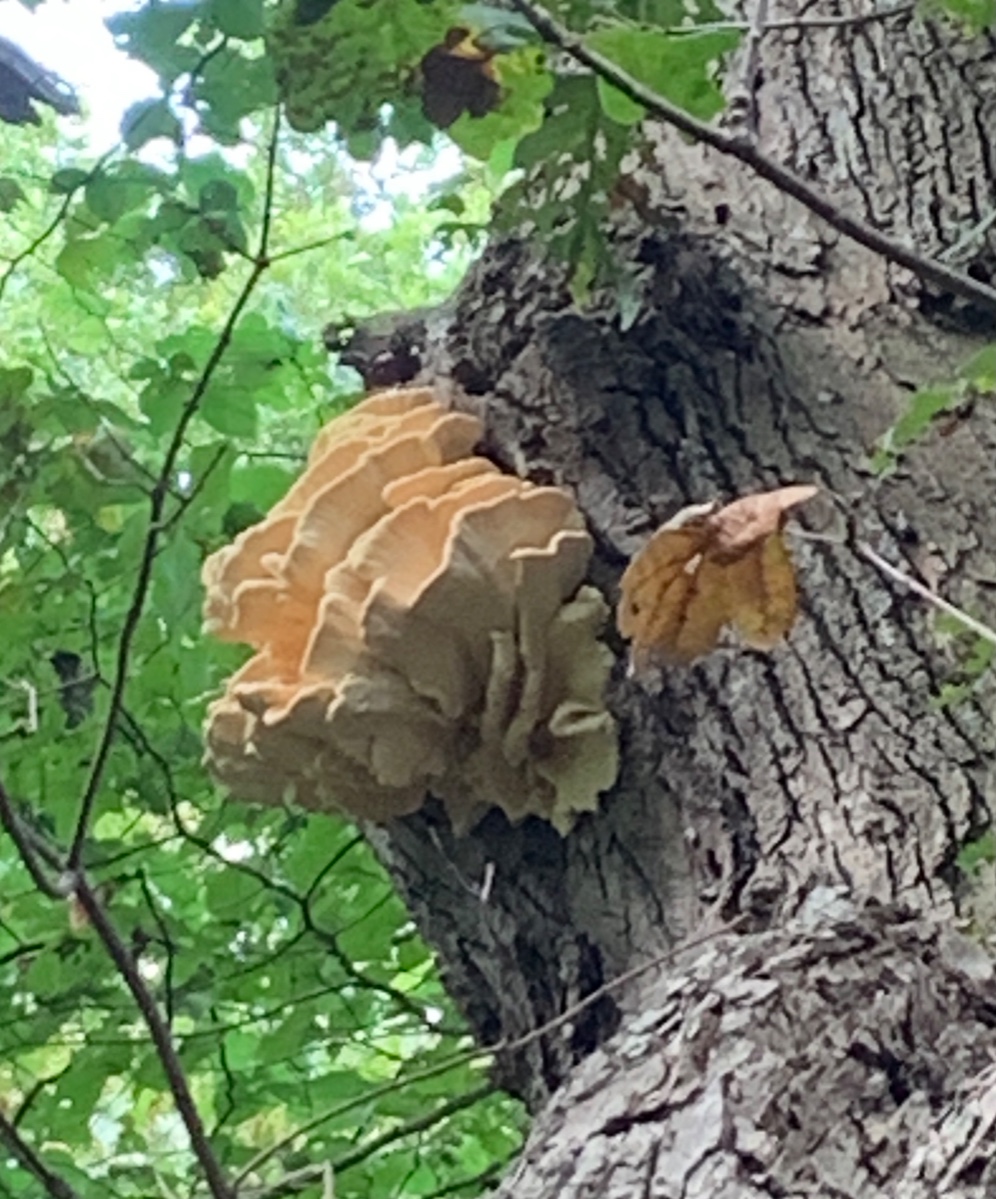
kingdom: Fungi
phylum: Basidiomycota
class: Agaricomycetes
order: Polyporales
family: Laetiporaceae
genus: Laetiporus
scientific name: Laetiporus sulphureus
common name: svovlporesvamp
